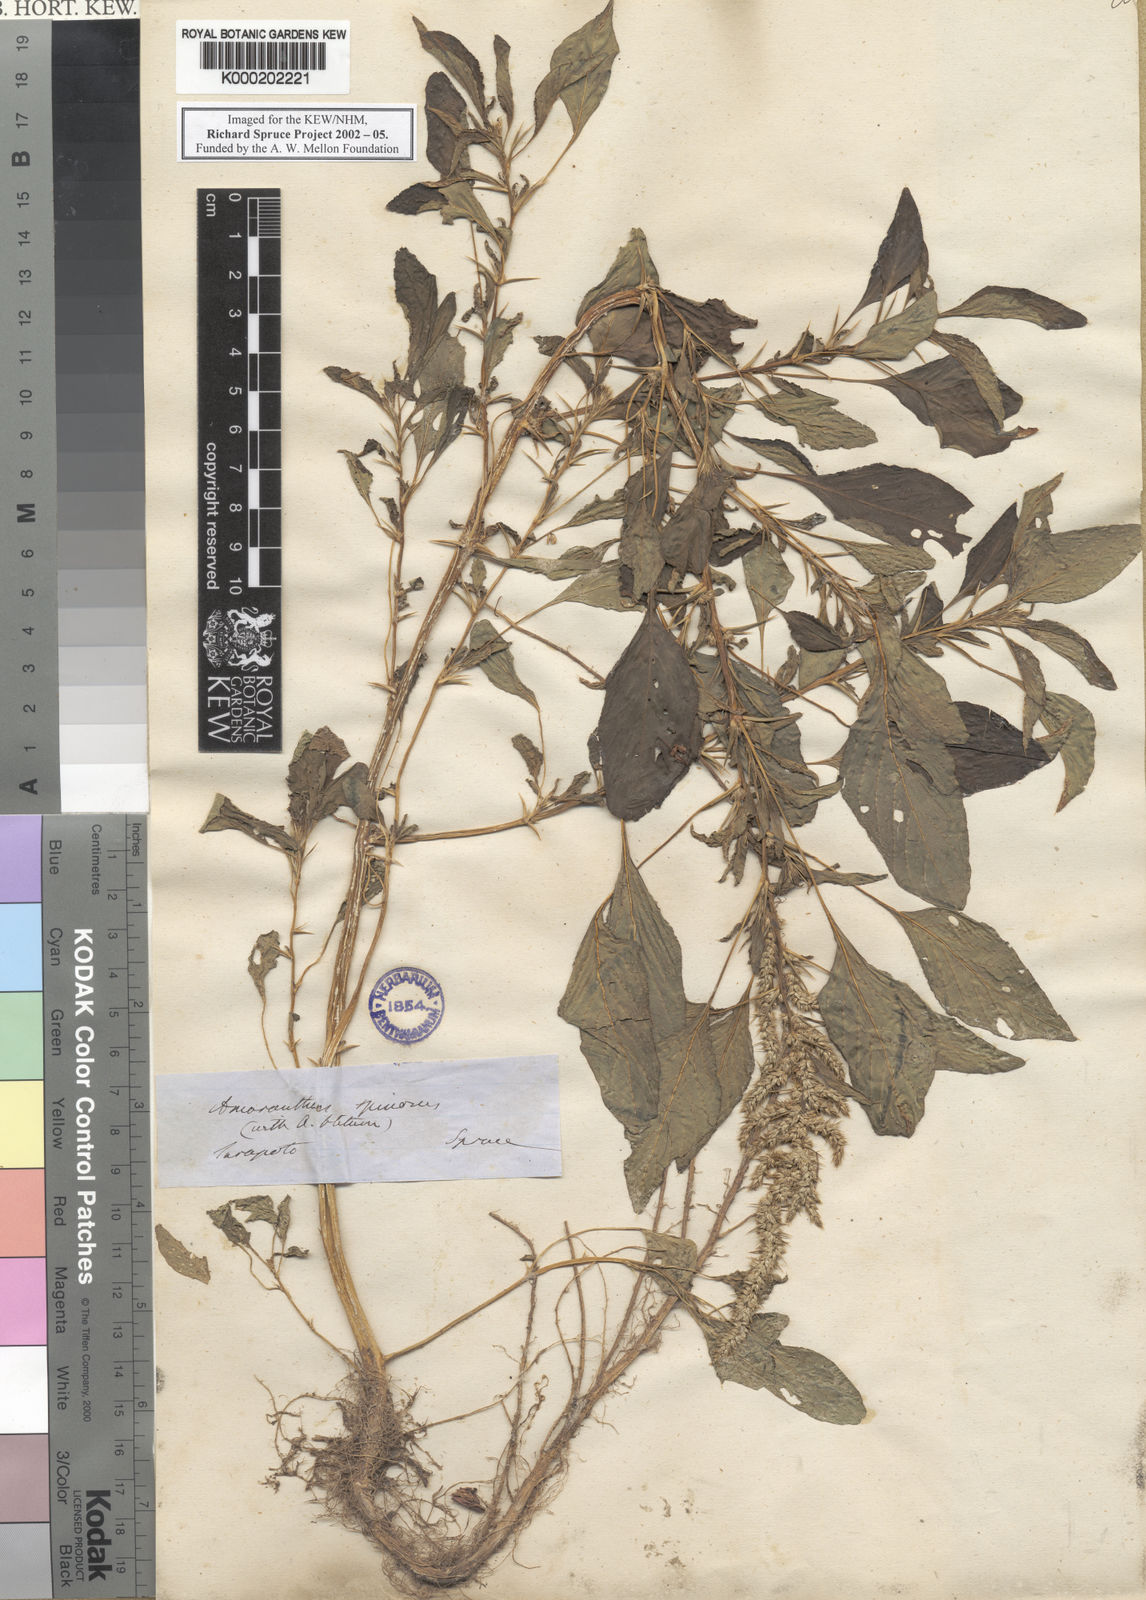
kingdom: Plantae
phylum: Tracheophyta
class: Magnoliopsida
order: Caryophyllales
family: Amaranthaceae
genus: Amaranthus
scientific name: Amaranthus spinosus
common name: Spiny amaranth
